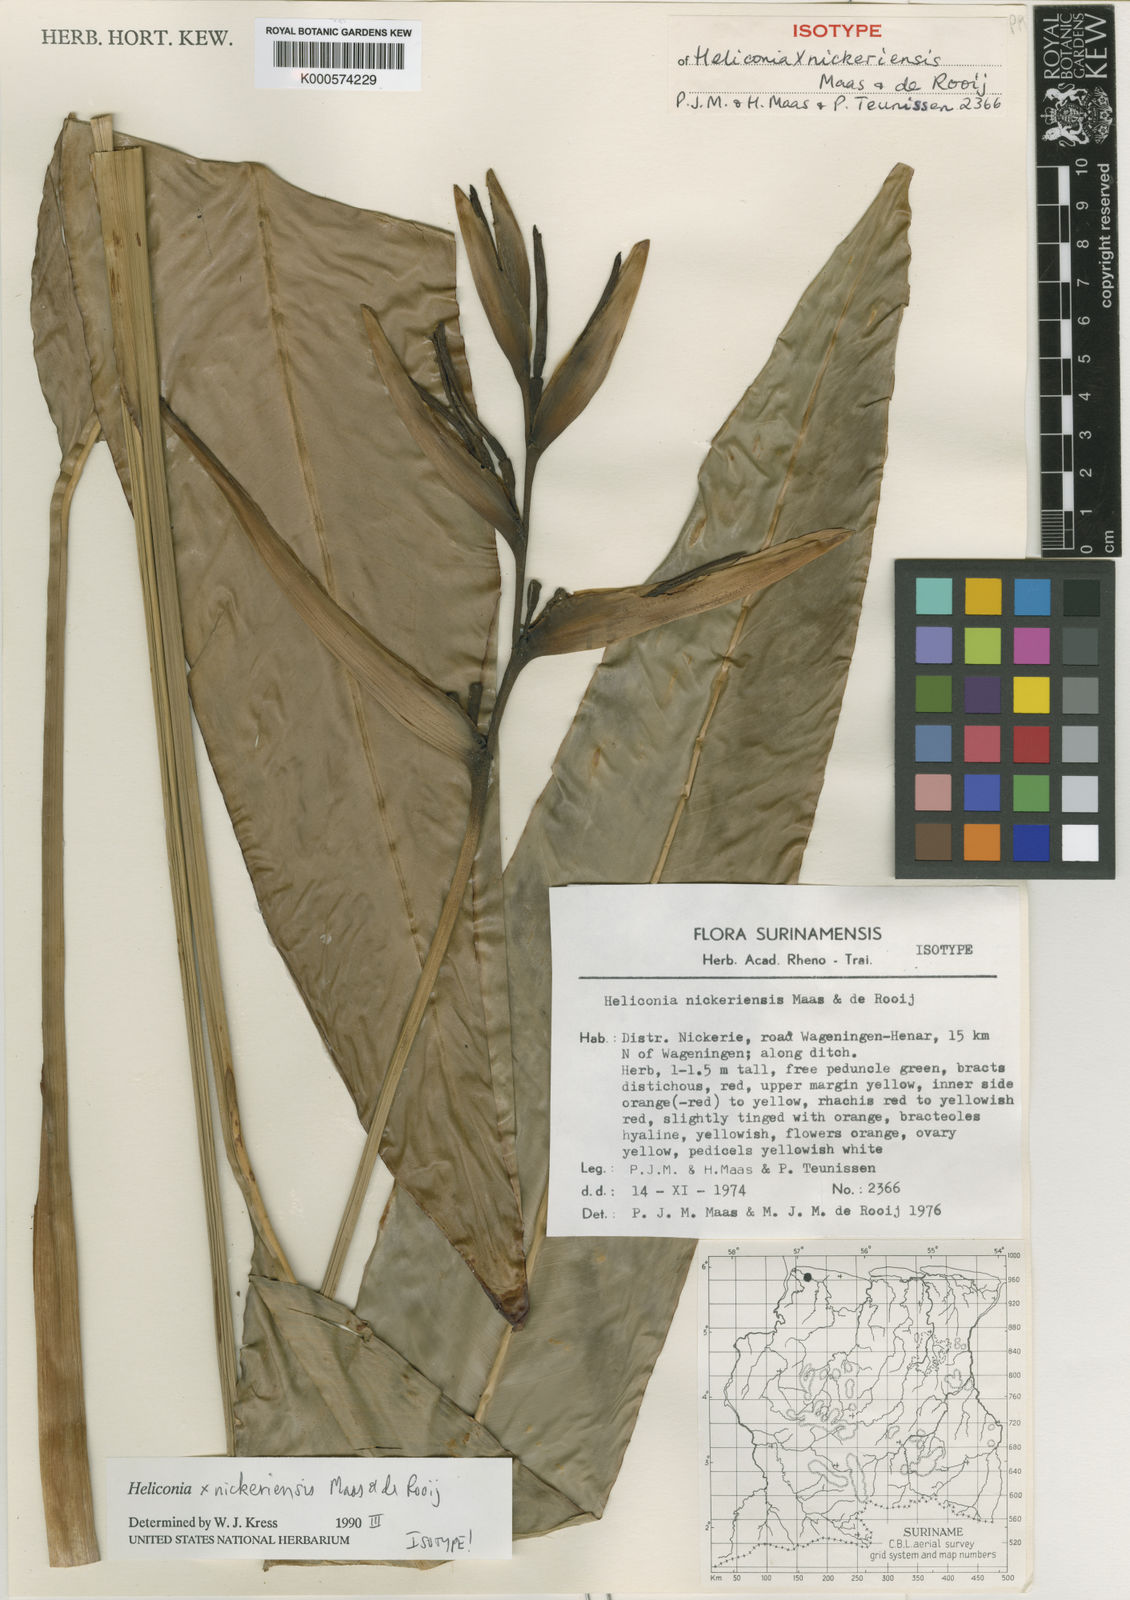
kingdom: Plantae
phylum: Tracheophyta
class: Liliopsida
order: Zingiberales
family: Heliconiaceae
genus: Heliconia
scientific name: Heliconia nickeriensis
